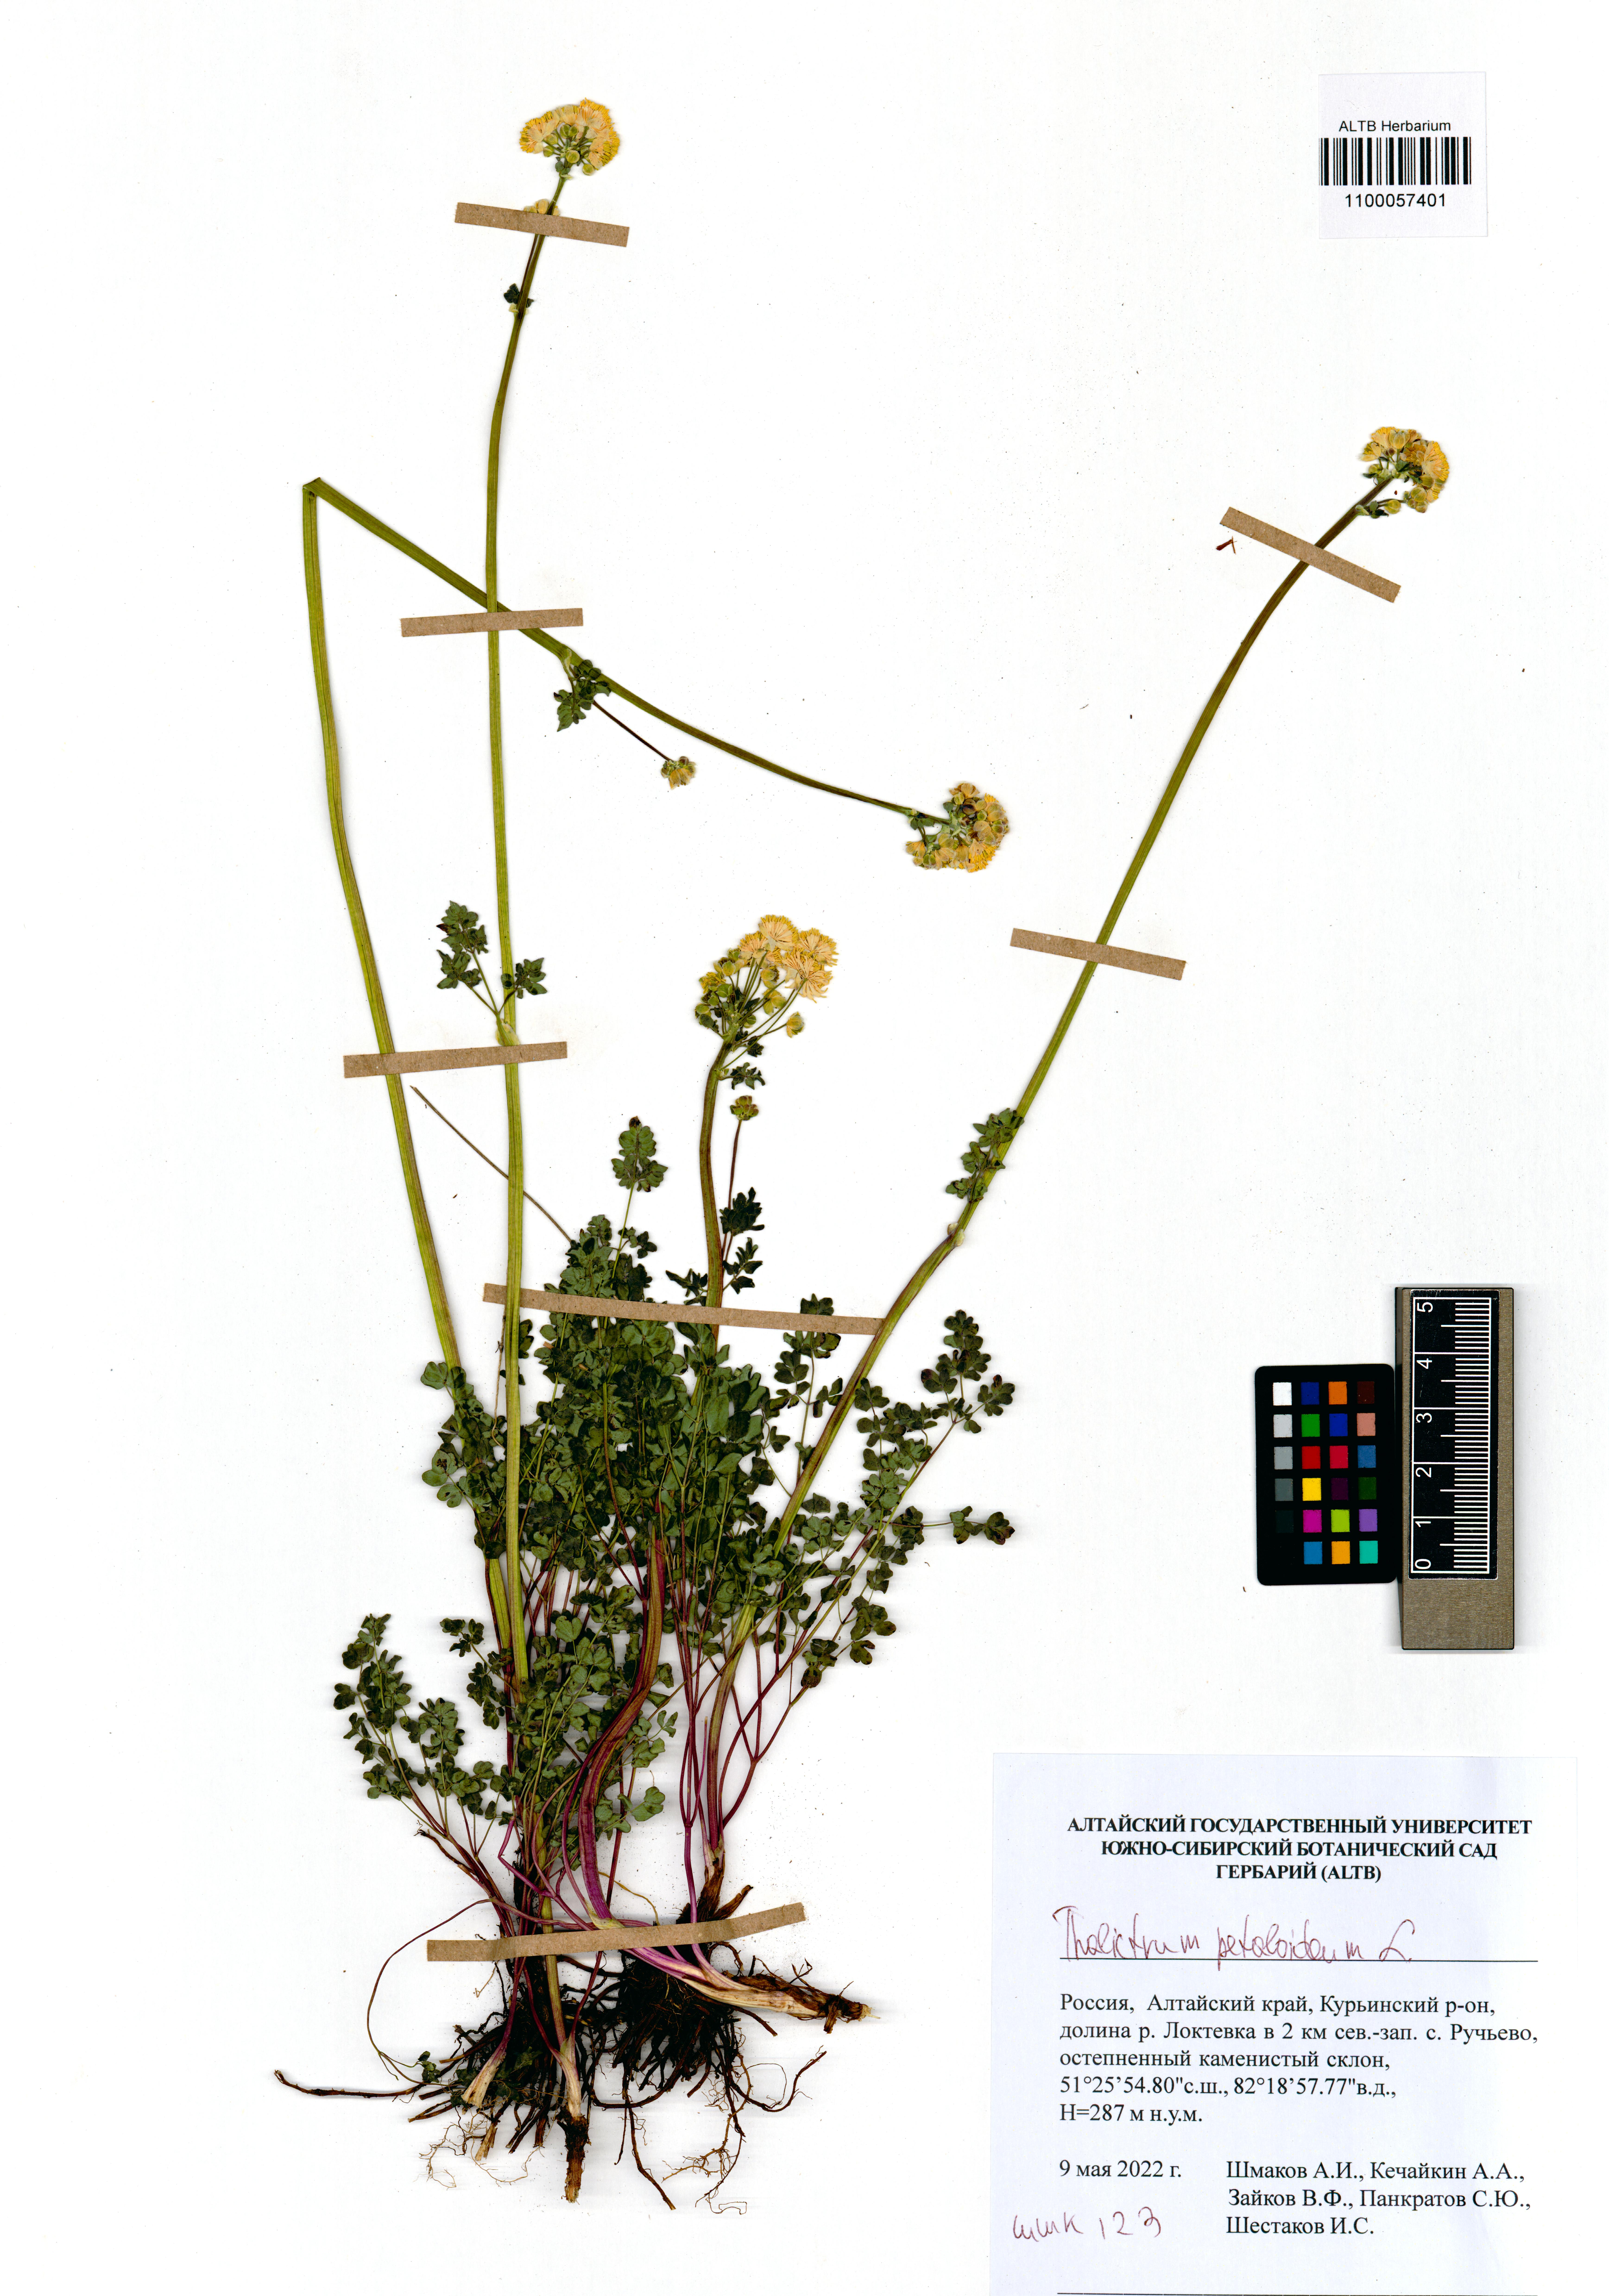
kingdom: Plantae
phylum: Tracheophyta
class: Magnoliopsida
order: Ranunculales
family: Ranunculaceae
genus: Thalictrum
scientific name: Thalictrum petaloideum
